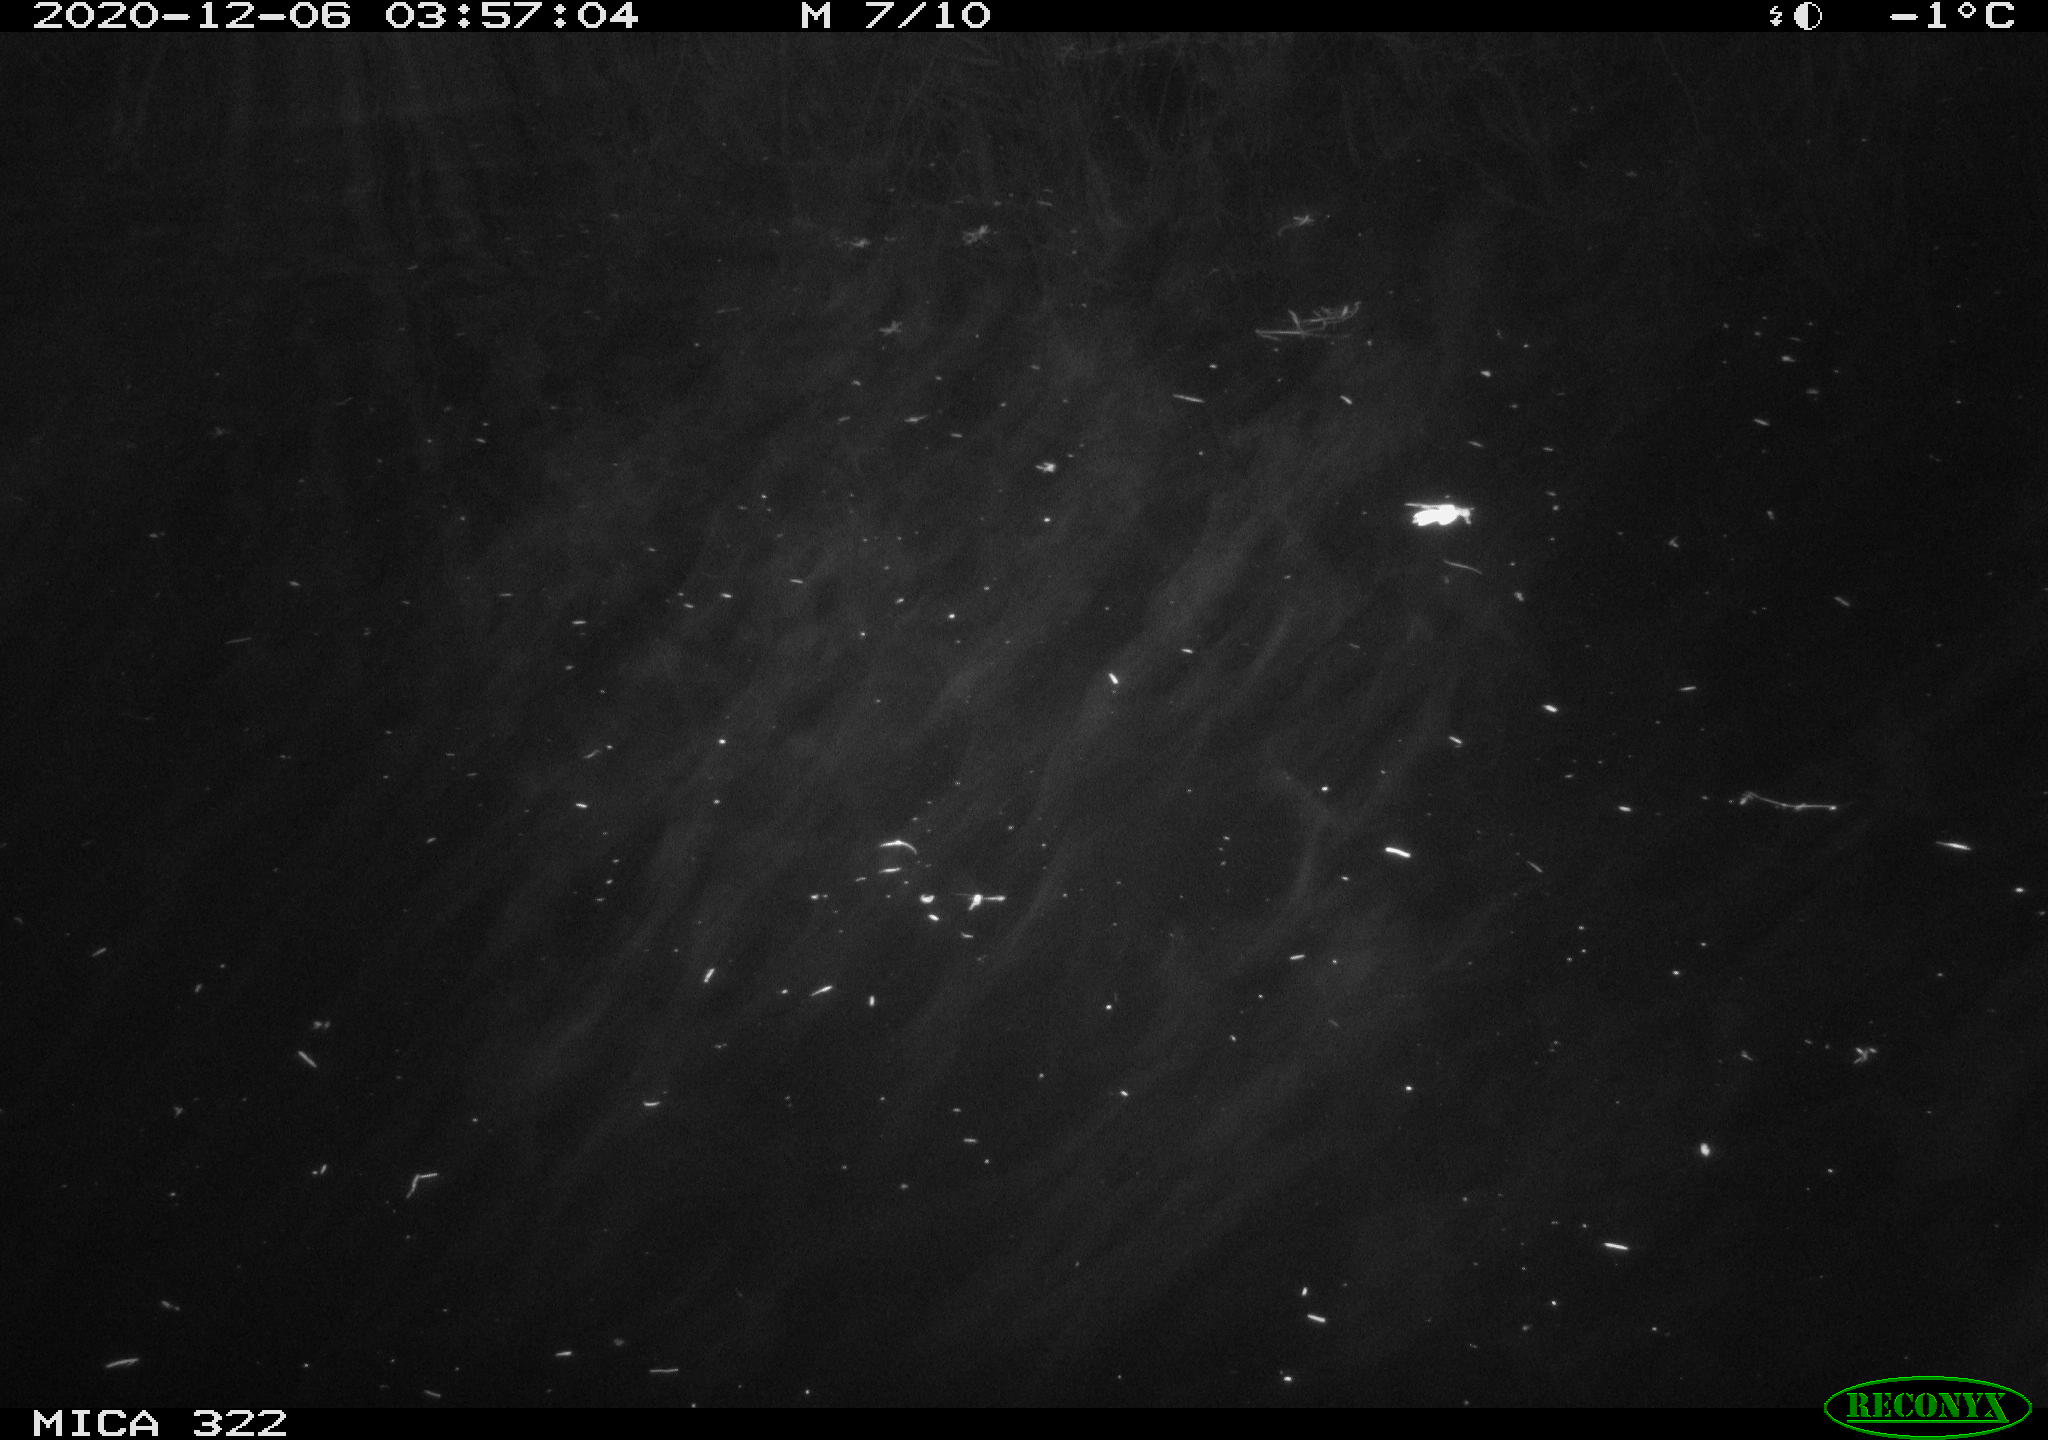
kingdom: Animalia
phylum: Chordata
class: Mammalia
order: Rodentia
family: Muridae
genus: Rattus
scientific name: Rattus norvegicus
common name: Brown rat
